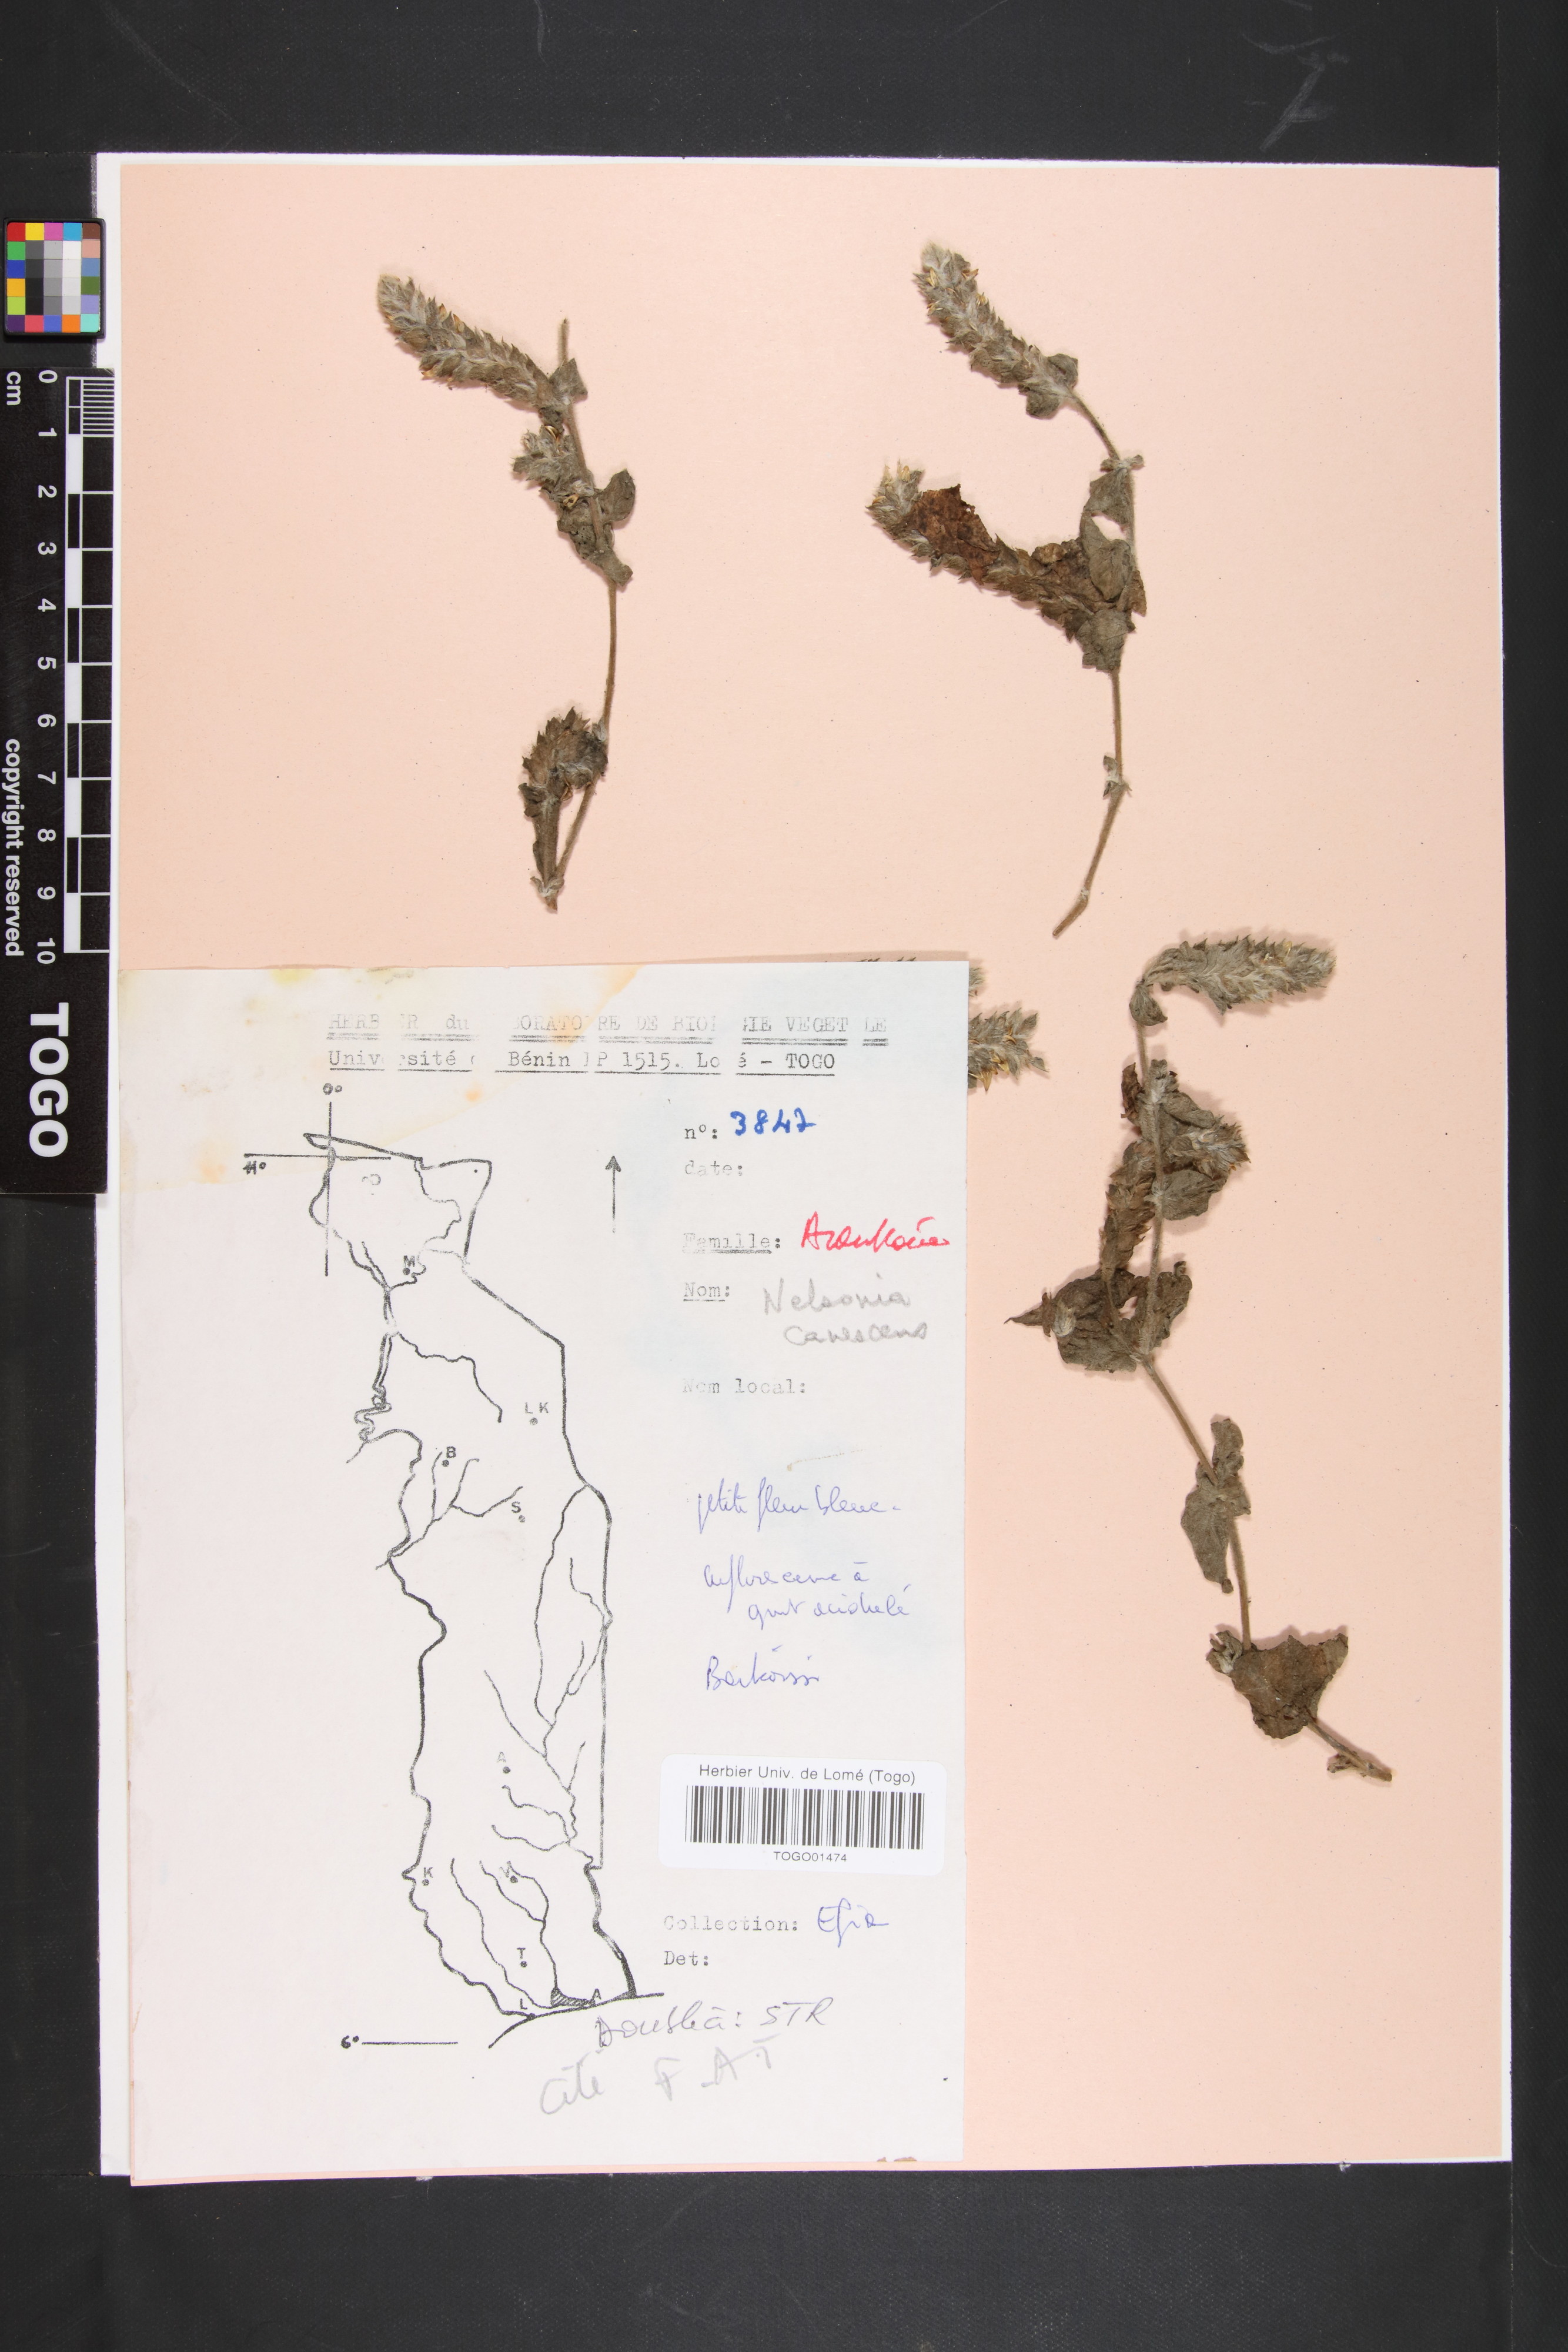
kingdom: Plantae
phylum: Tracheophyta
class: Magnoliopsida
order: Lamiales
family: Acanthaceae
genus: Nelsonia
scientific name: Nelsonia canescens
